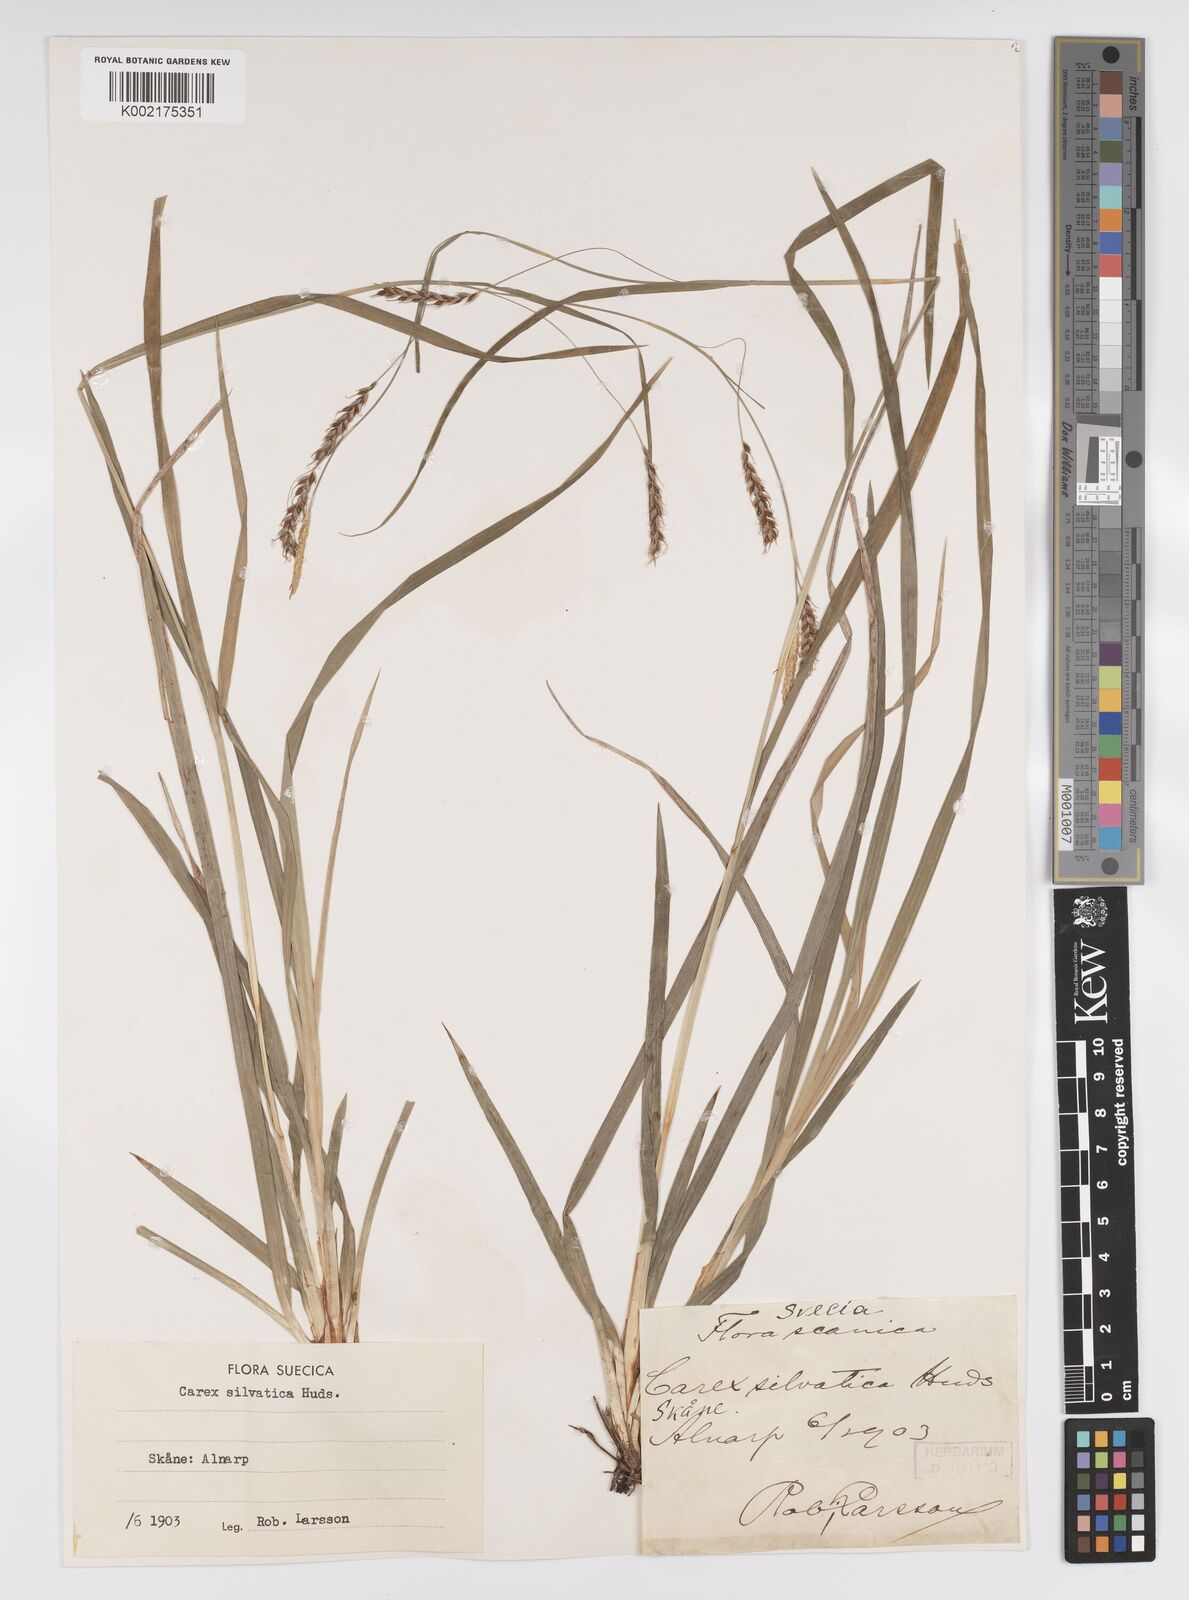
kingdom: Plantae
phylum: Tracheophyta
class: Liliopsida
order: Poales
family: Cyperaceae
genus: Carex
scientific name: Carex sylvatica
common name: Wood-sedge
